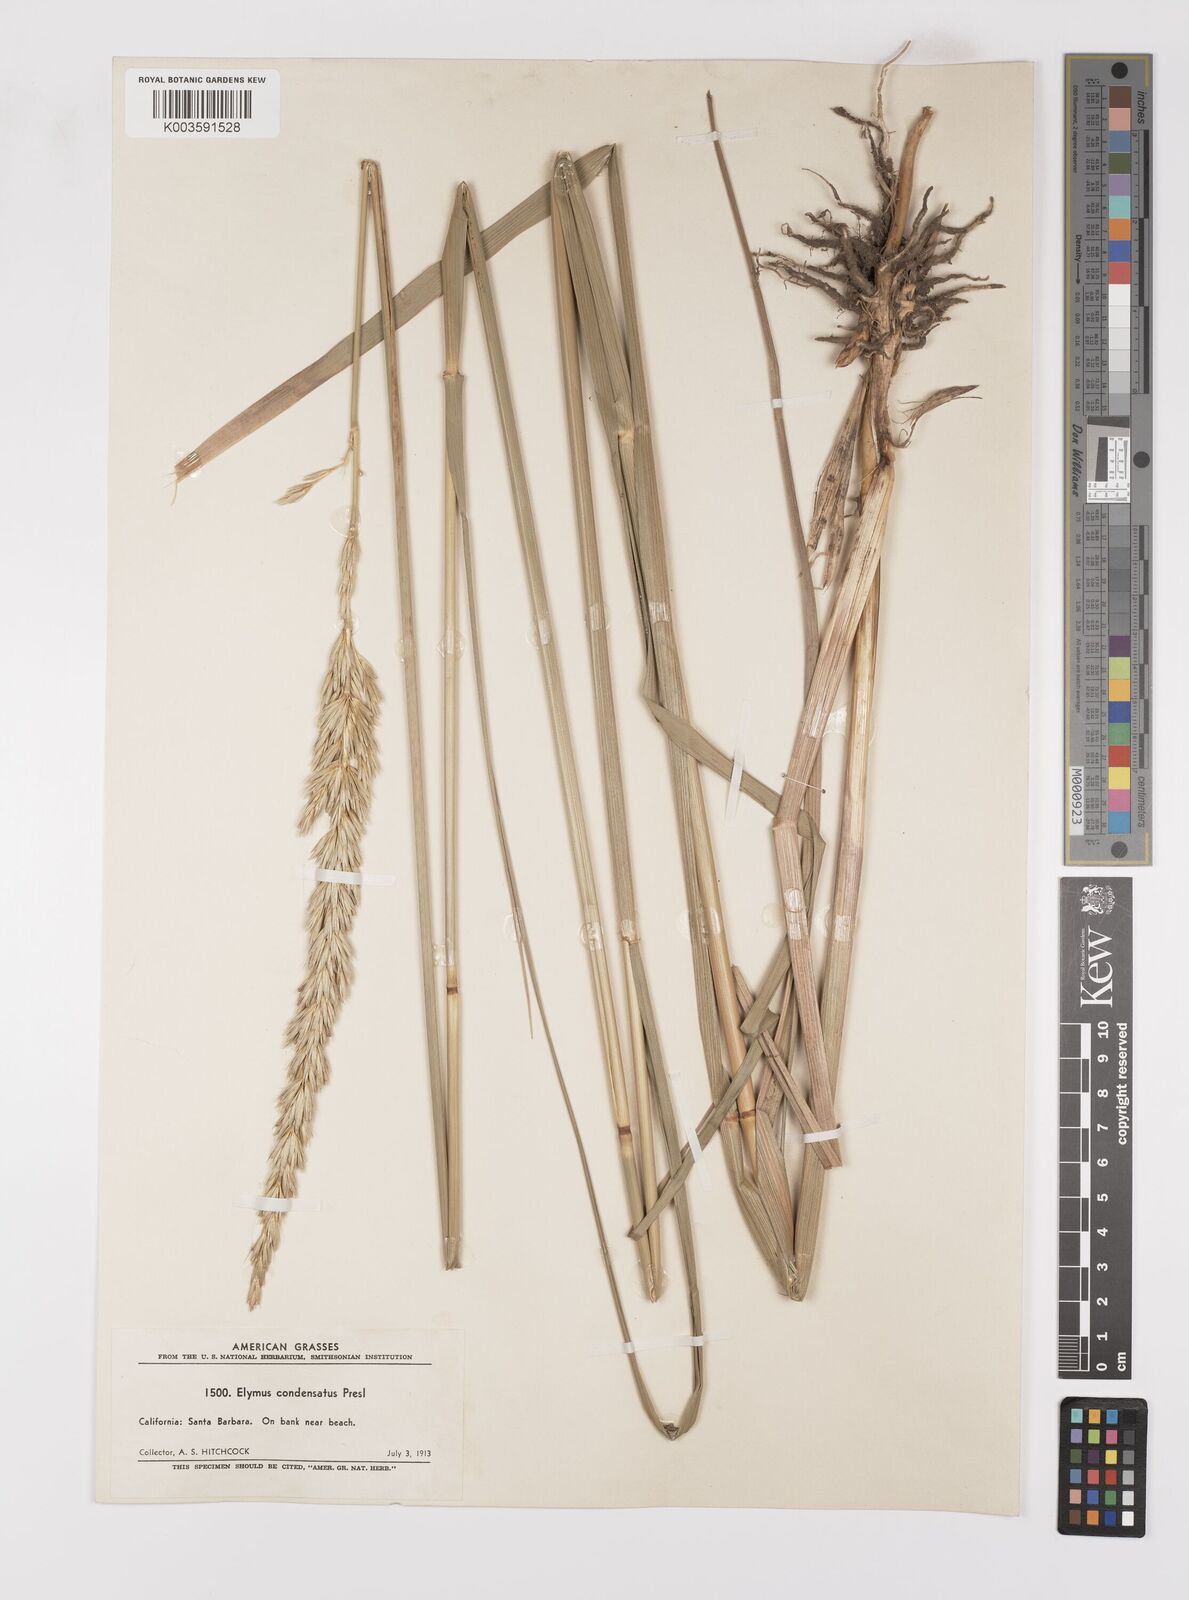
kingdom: Plantae
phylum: Tracheophyta
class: Liliopsida
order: Poales
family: Poaceae
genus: Leymus
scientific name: Leymus condensatus
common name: Giant wild rye
